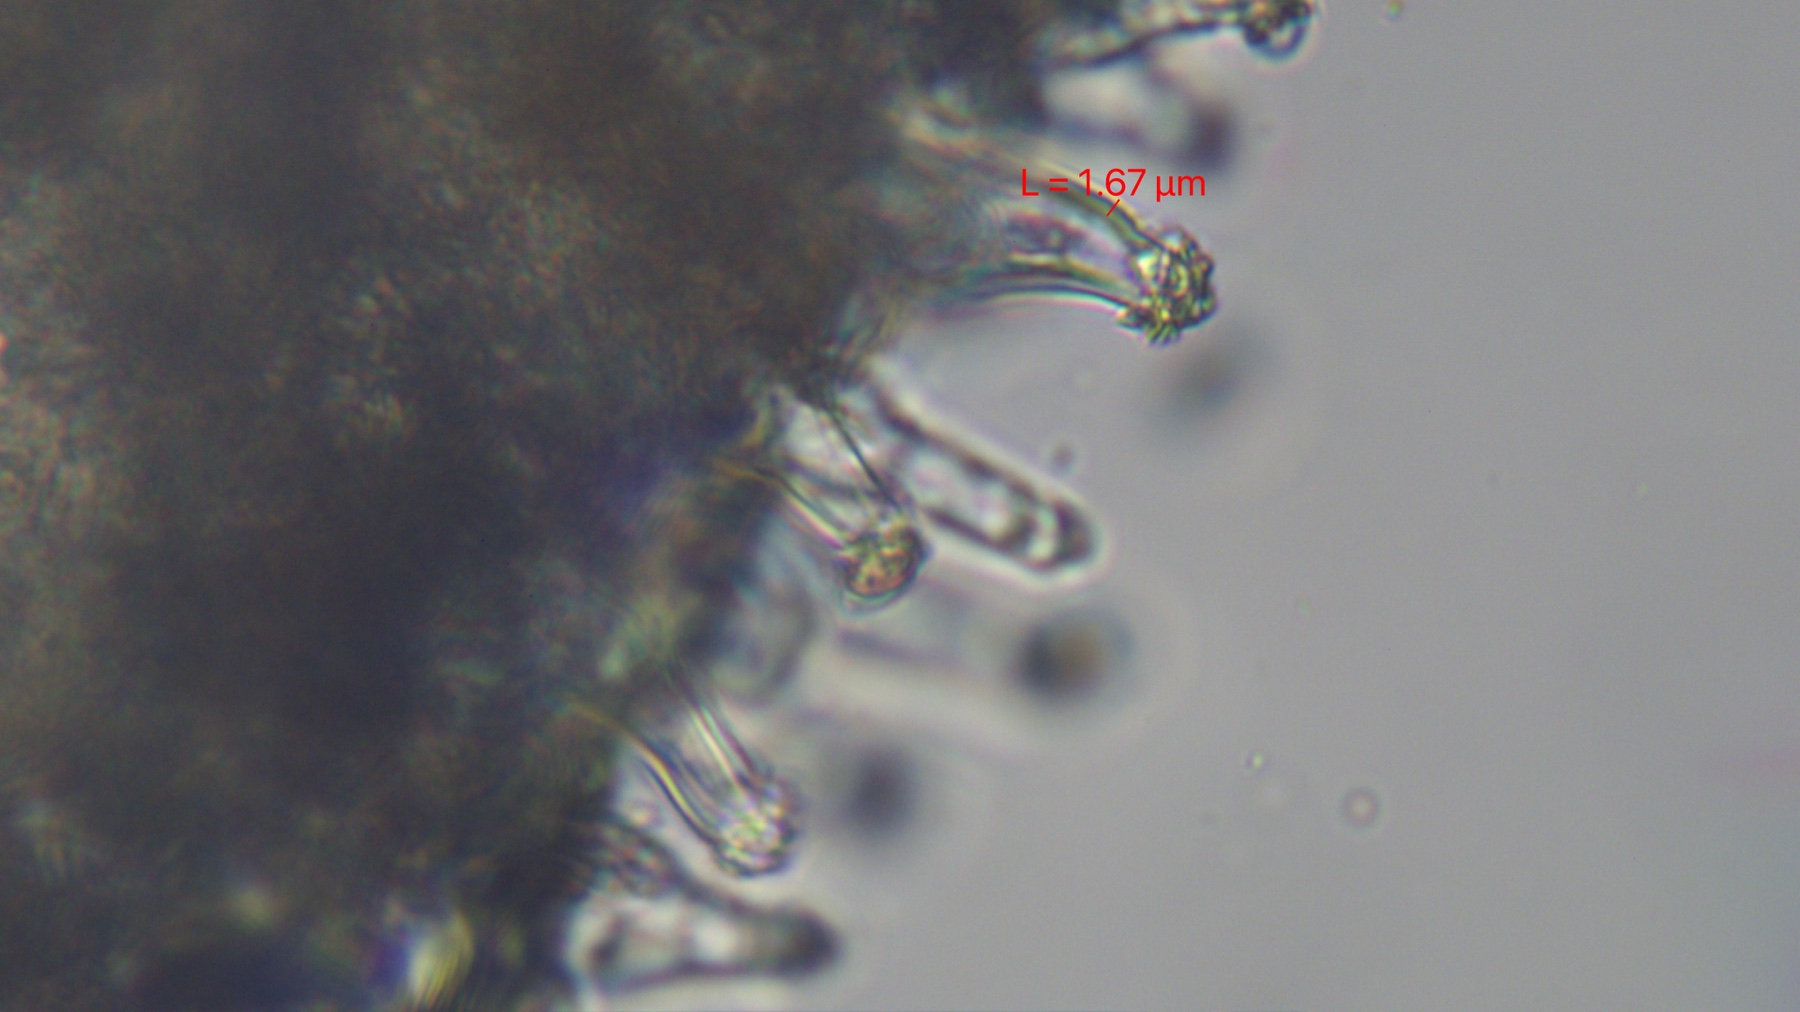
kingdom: Fungi
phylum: Basidiomycota
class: Agaricomycetes
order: Agaricales
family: Inocybaceae
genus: Inocybe
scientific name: Inocybe
